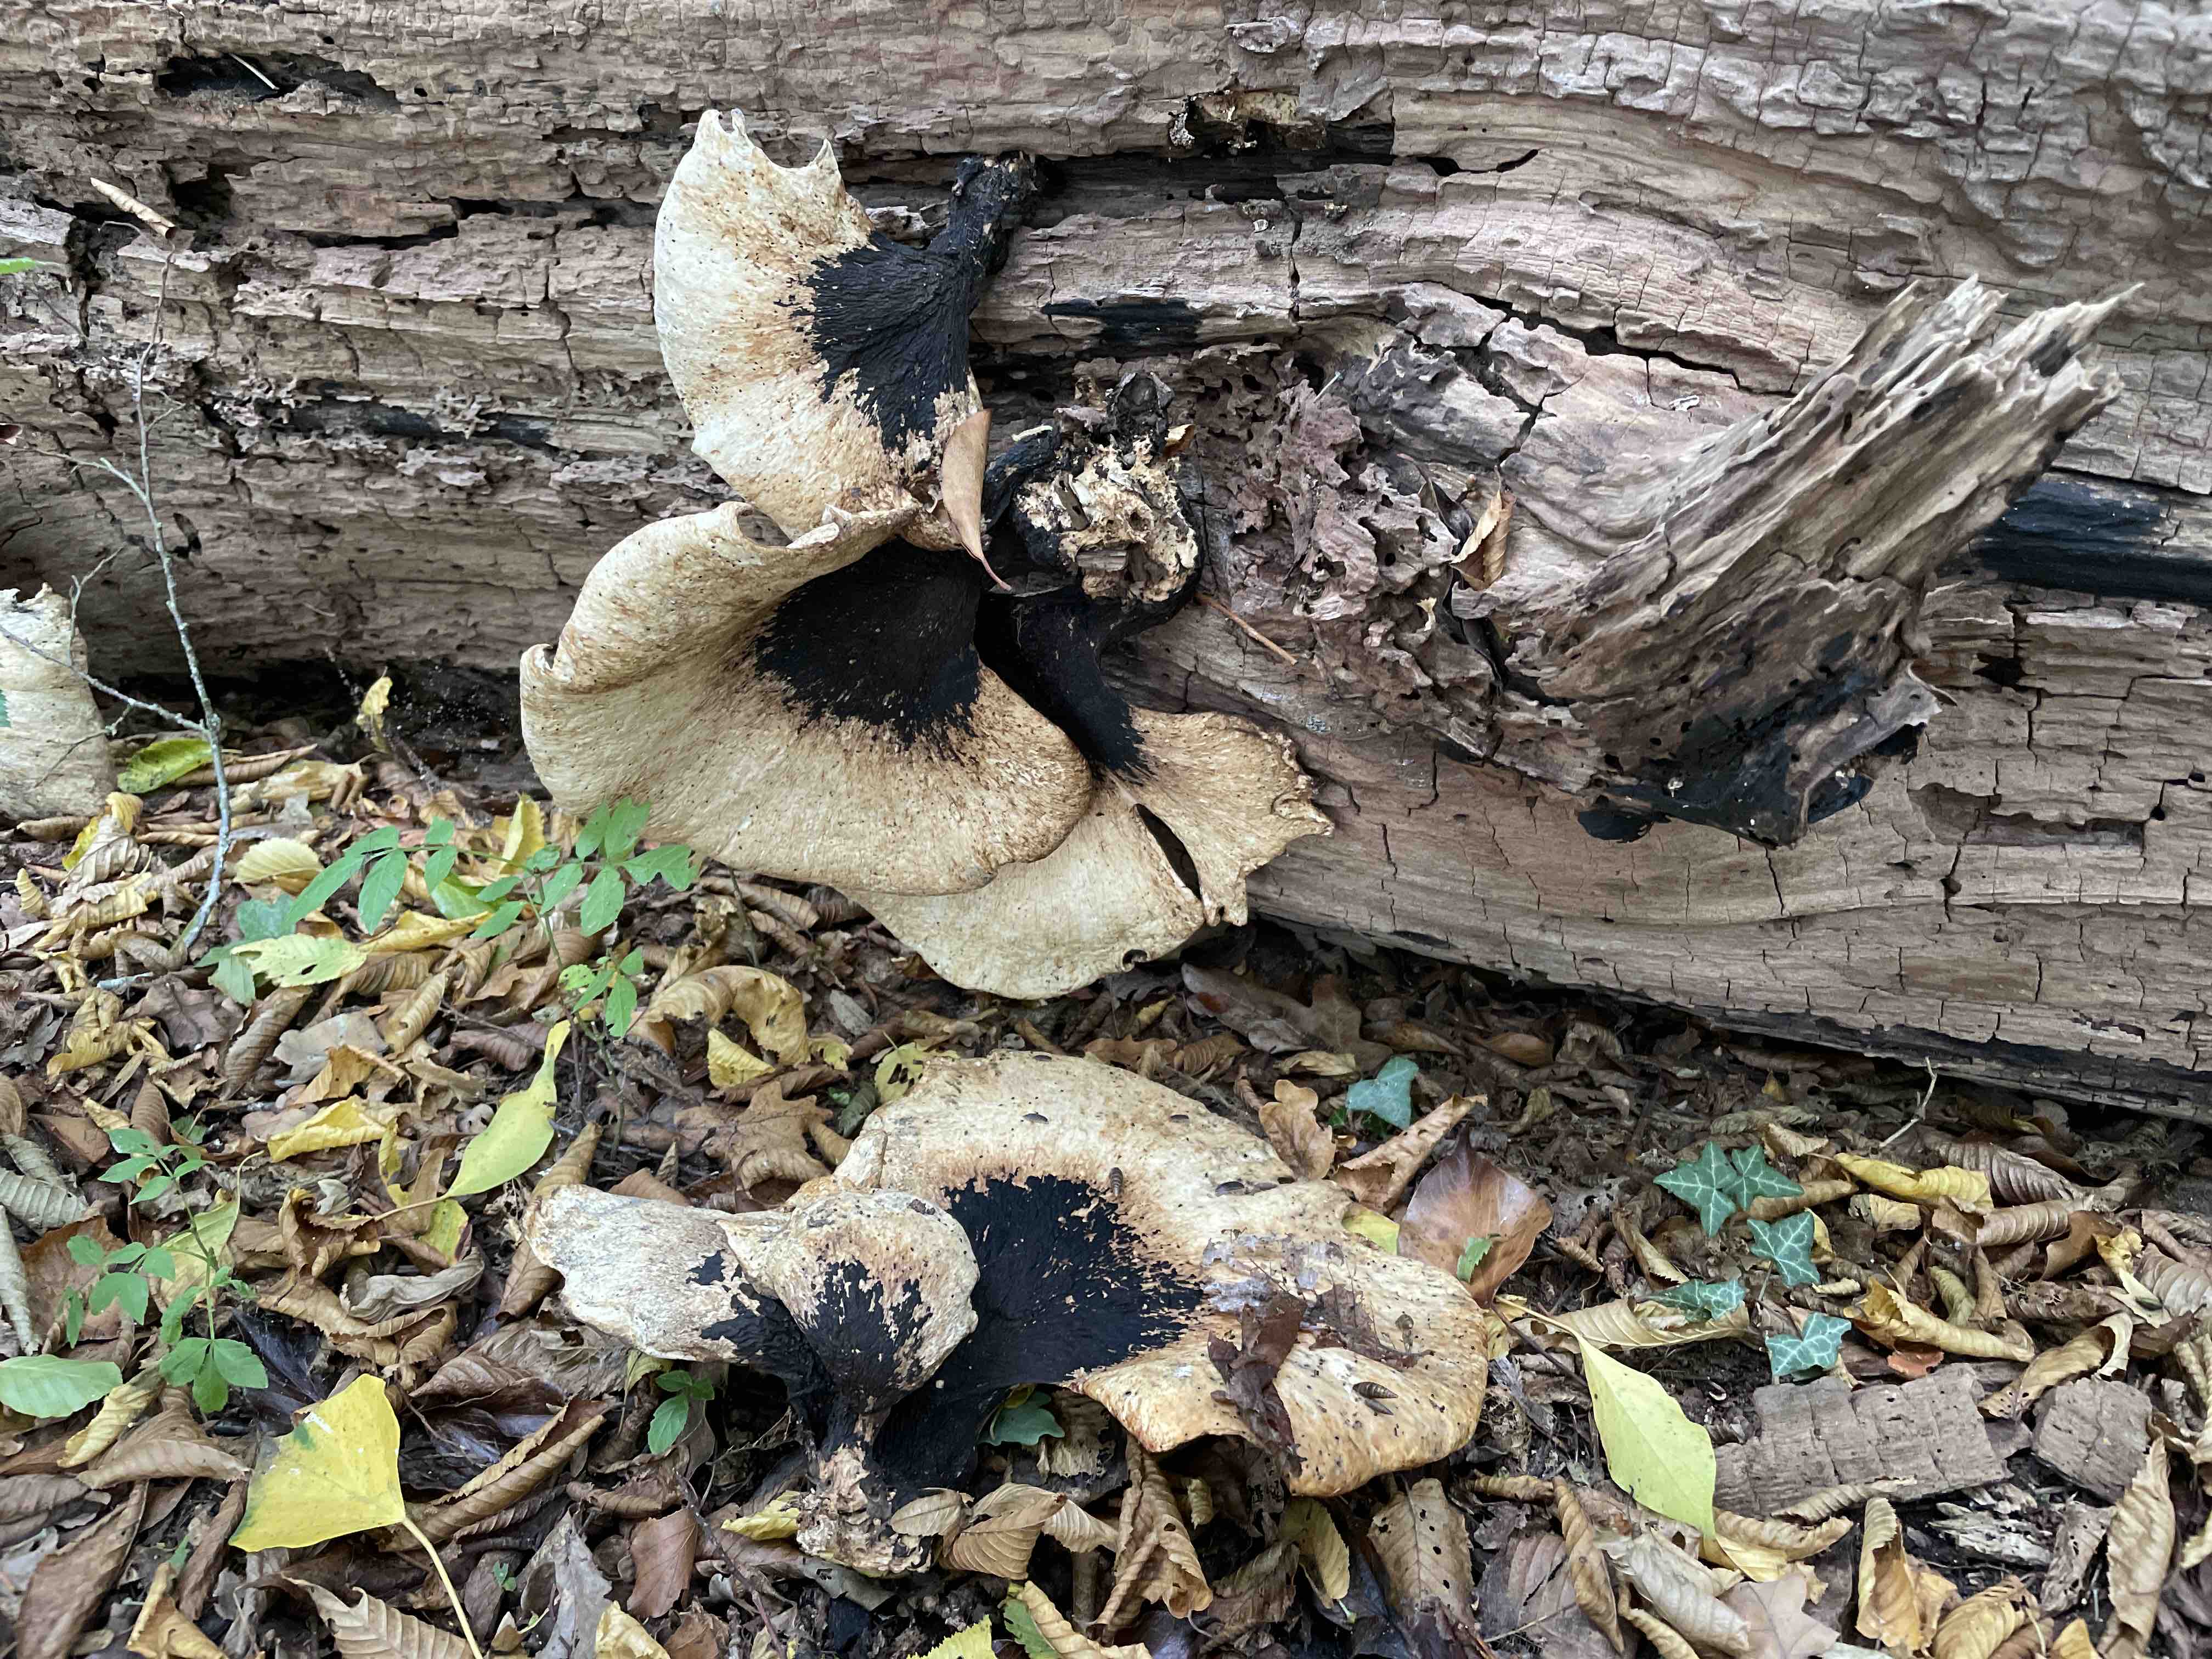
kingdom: Fungi
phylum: Basidiomycota
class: Agaricomycetes
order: Polyporales
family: Polyporaceae
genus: Cerioporus
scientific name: Cerioporus squamosus
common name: skællet stilkporesvamp
